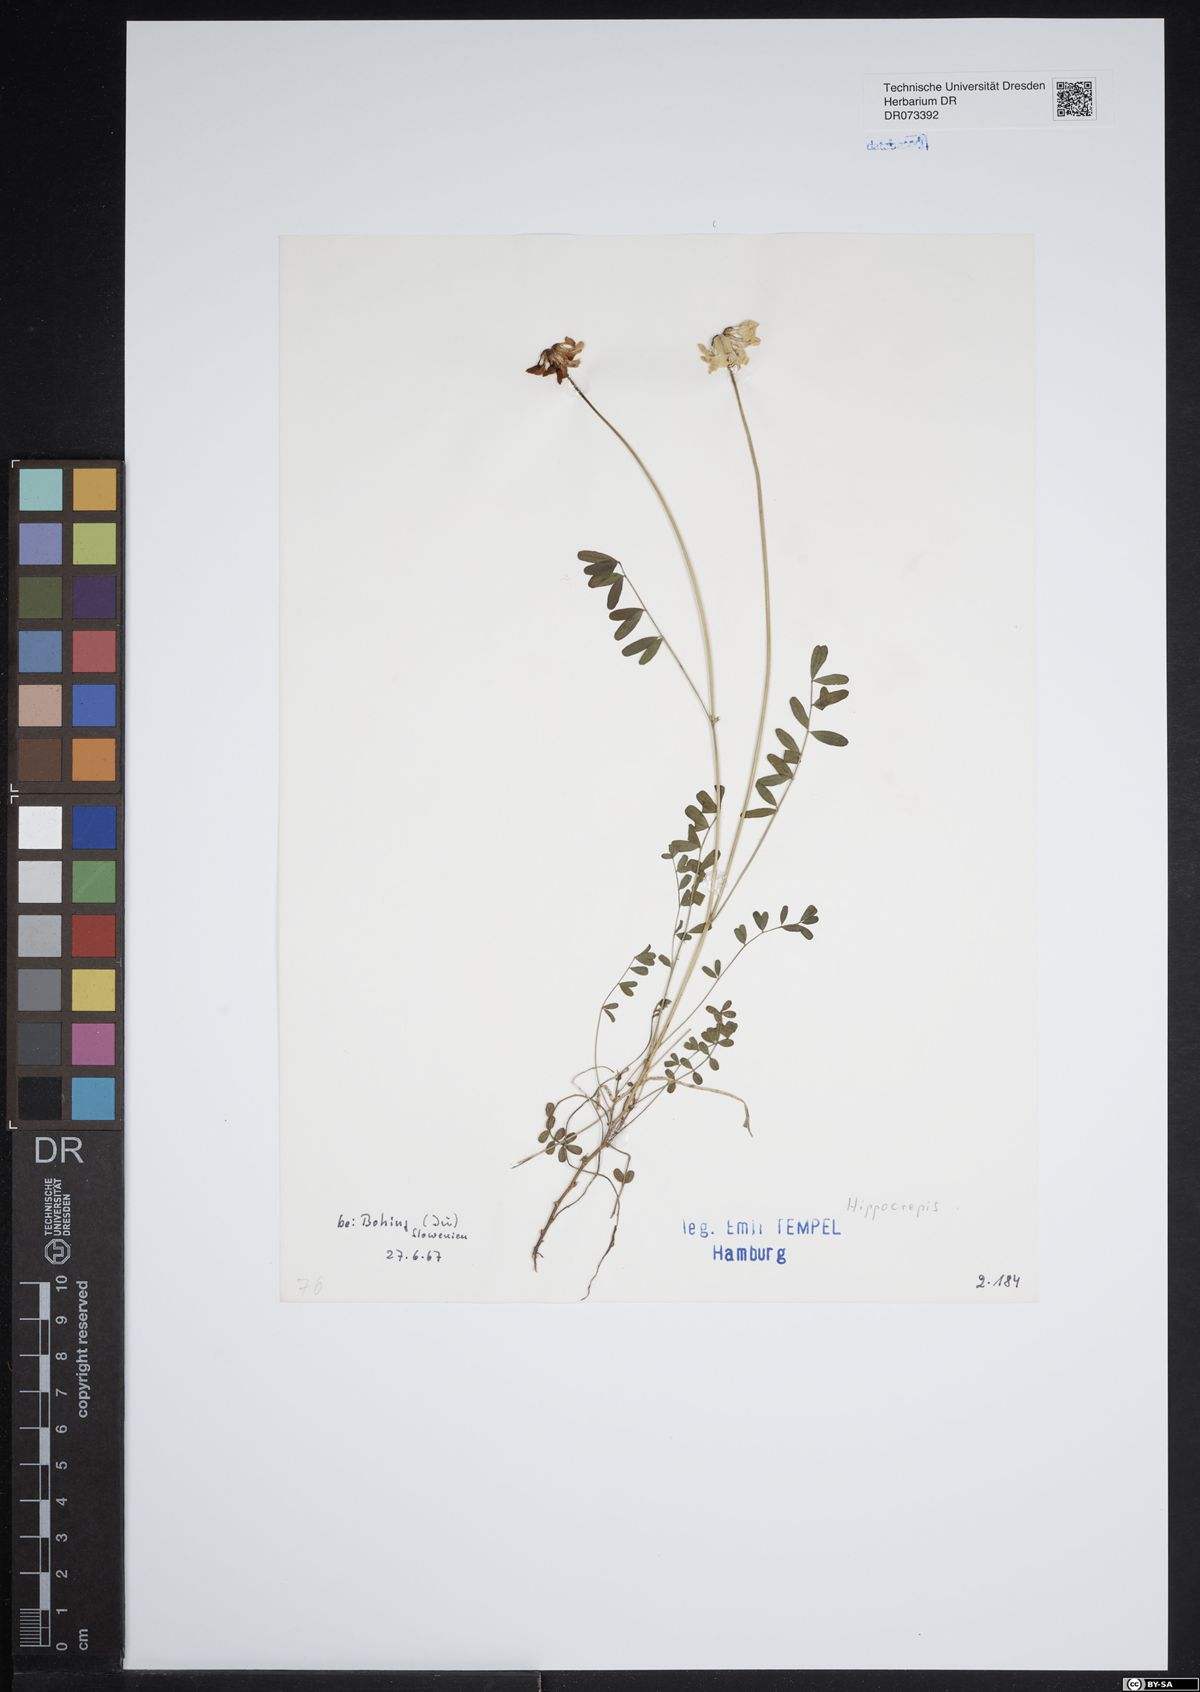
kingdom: Plantae
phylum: Tracheophyta
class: Magnoliopsida
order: Fabales
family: Fabaceae
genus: Hippocrepis
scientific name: Hippocrepis
